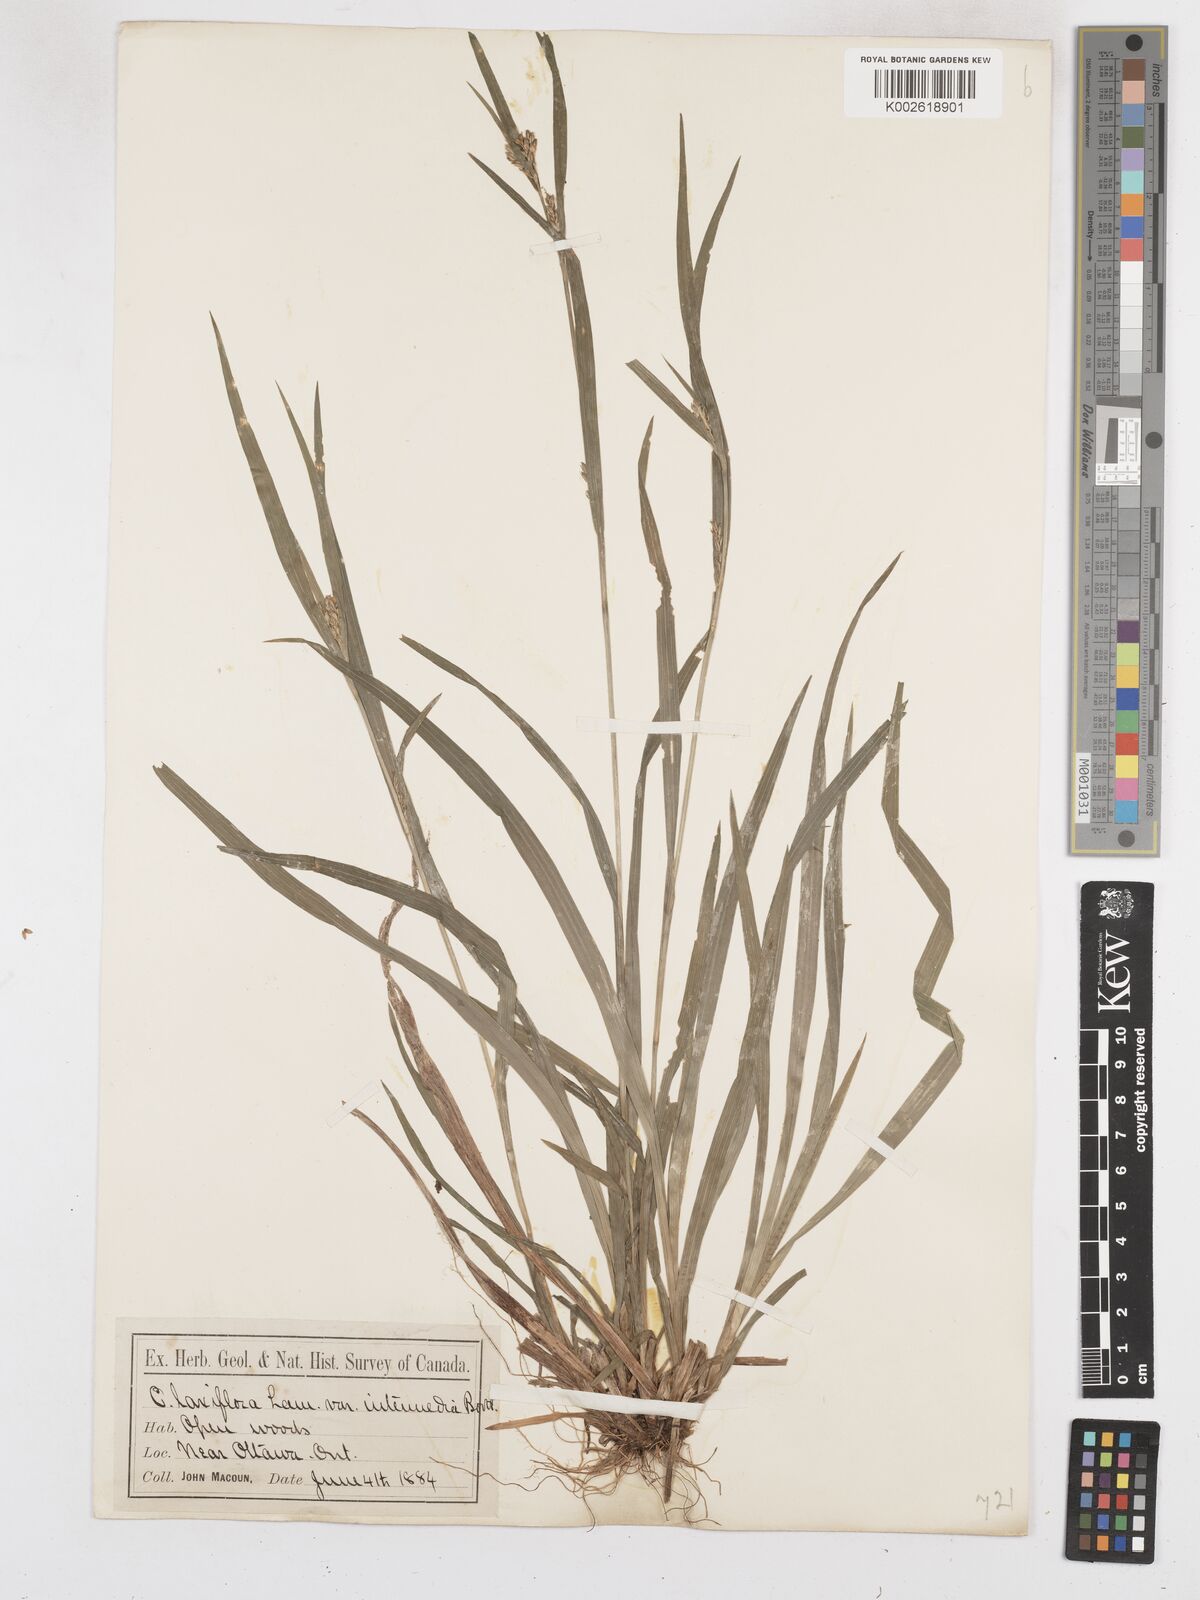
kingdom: Plantae
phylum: Tracheophyta
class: Liliopsida
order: Poales
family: Cyperaceae
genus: Carex
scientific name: Carex ormostachya
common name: Necklace spike sedge
